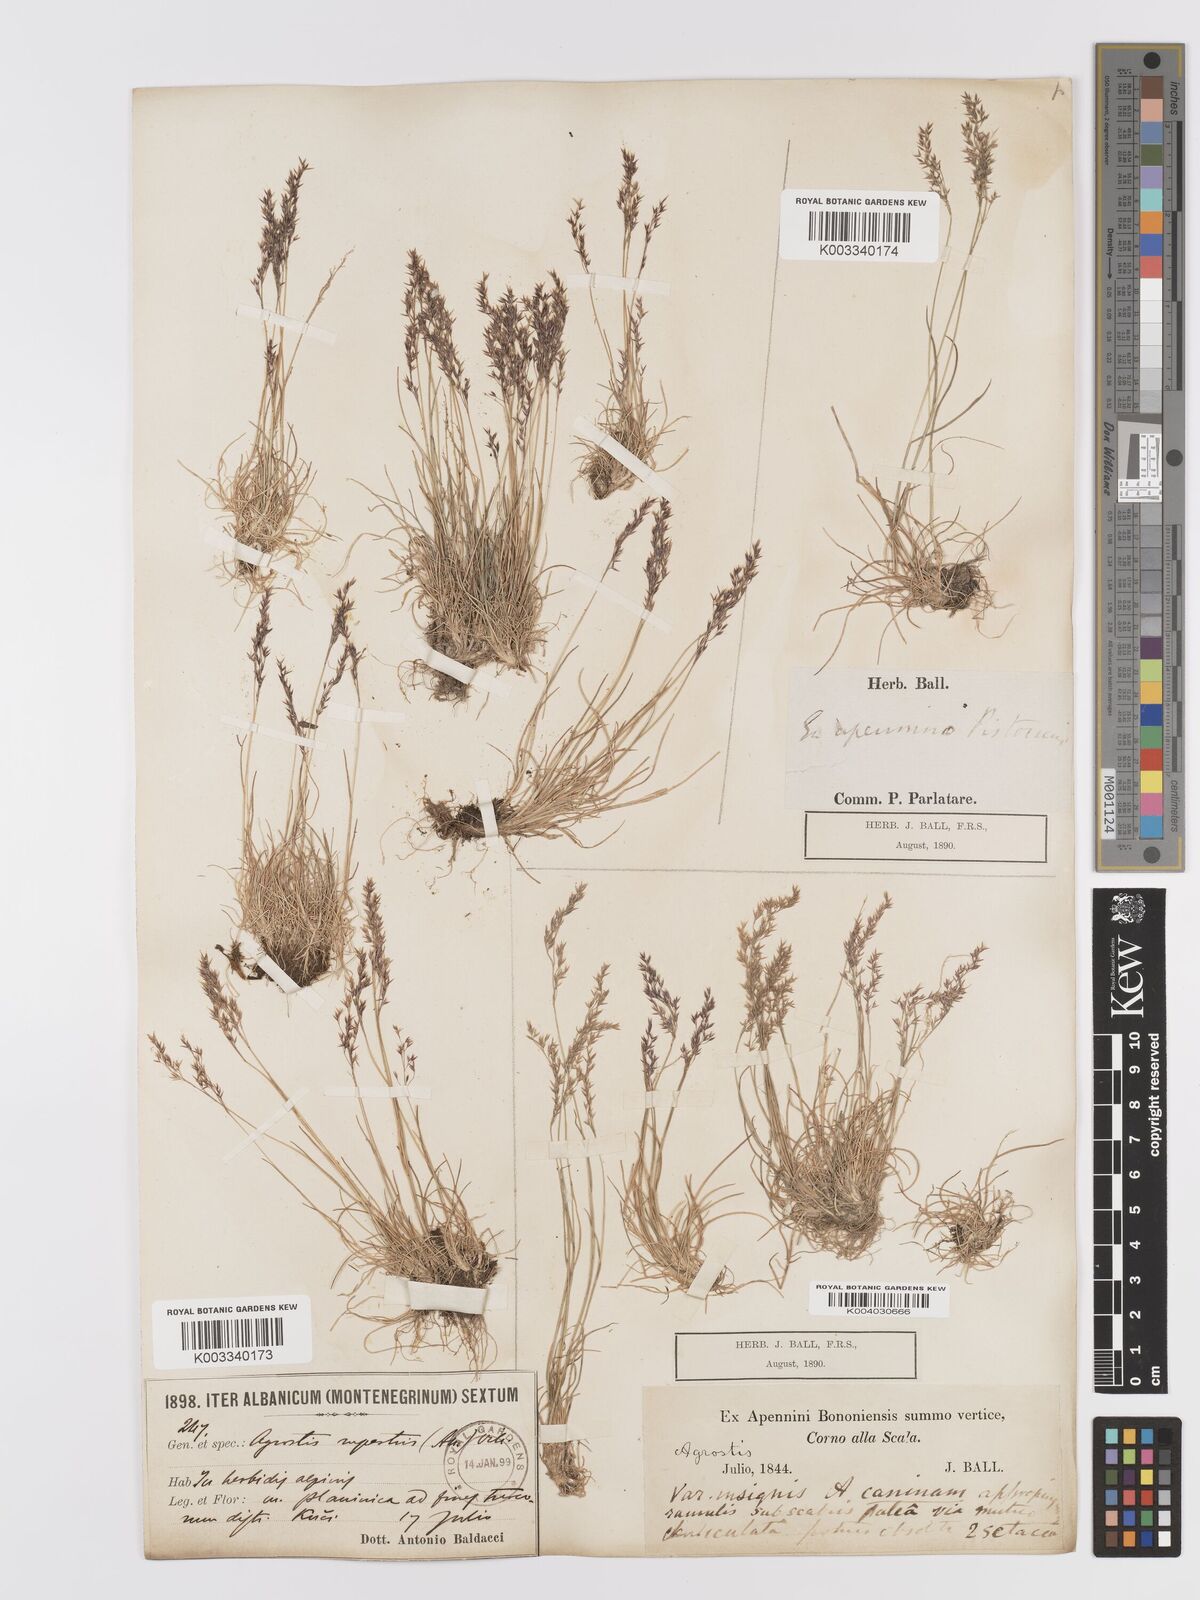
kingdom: Plantae
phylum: Tracheophyta
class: Liliopsida
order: Poales
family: Poaceae
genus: Agrostis
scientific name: Agrostis rupestris
